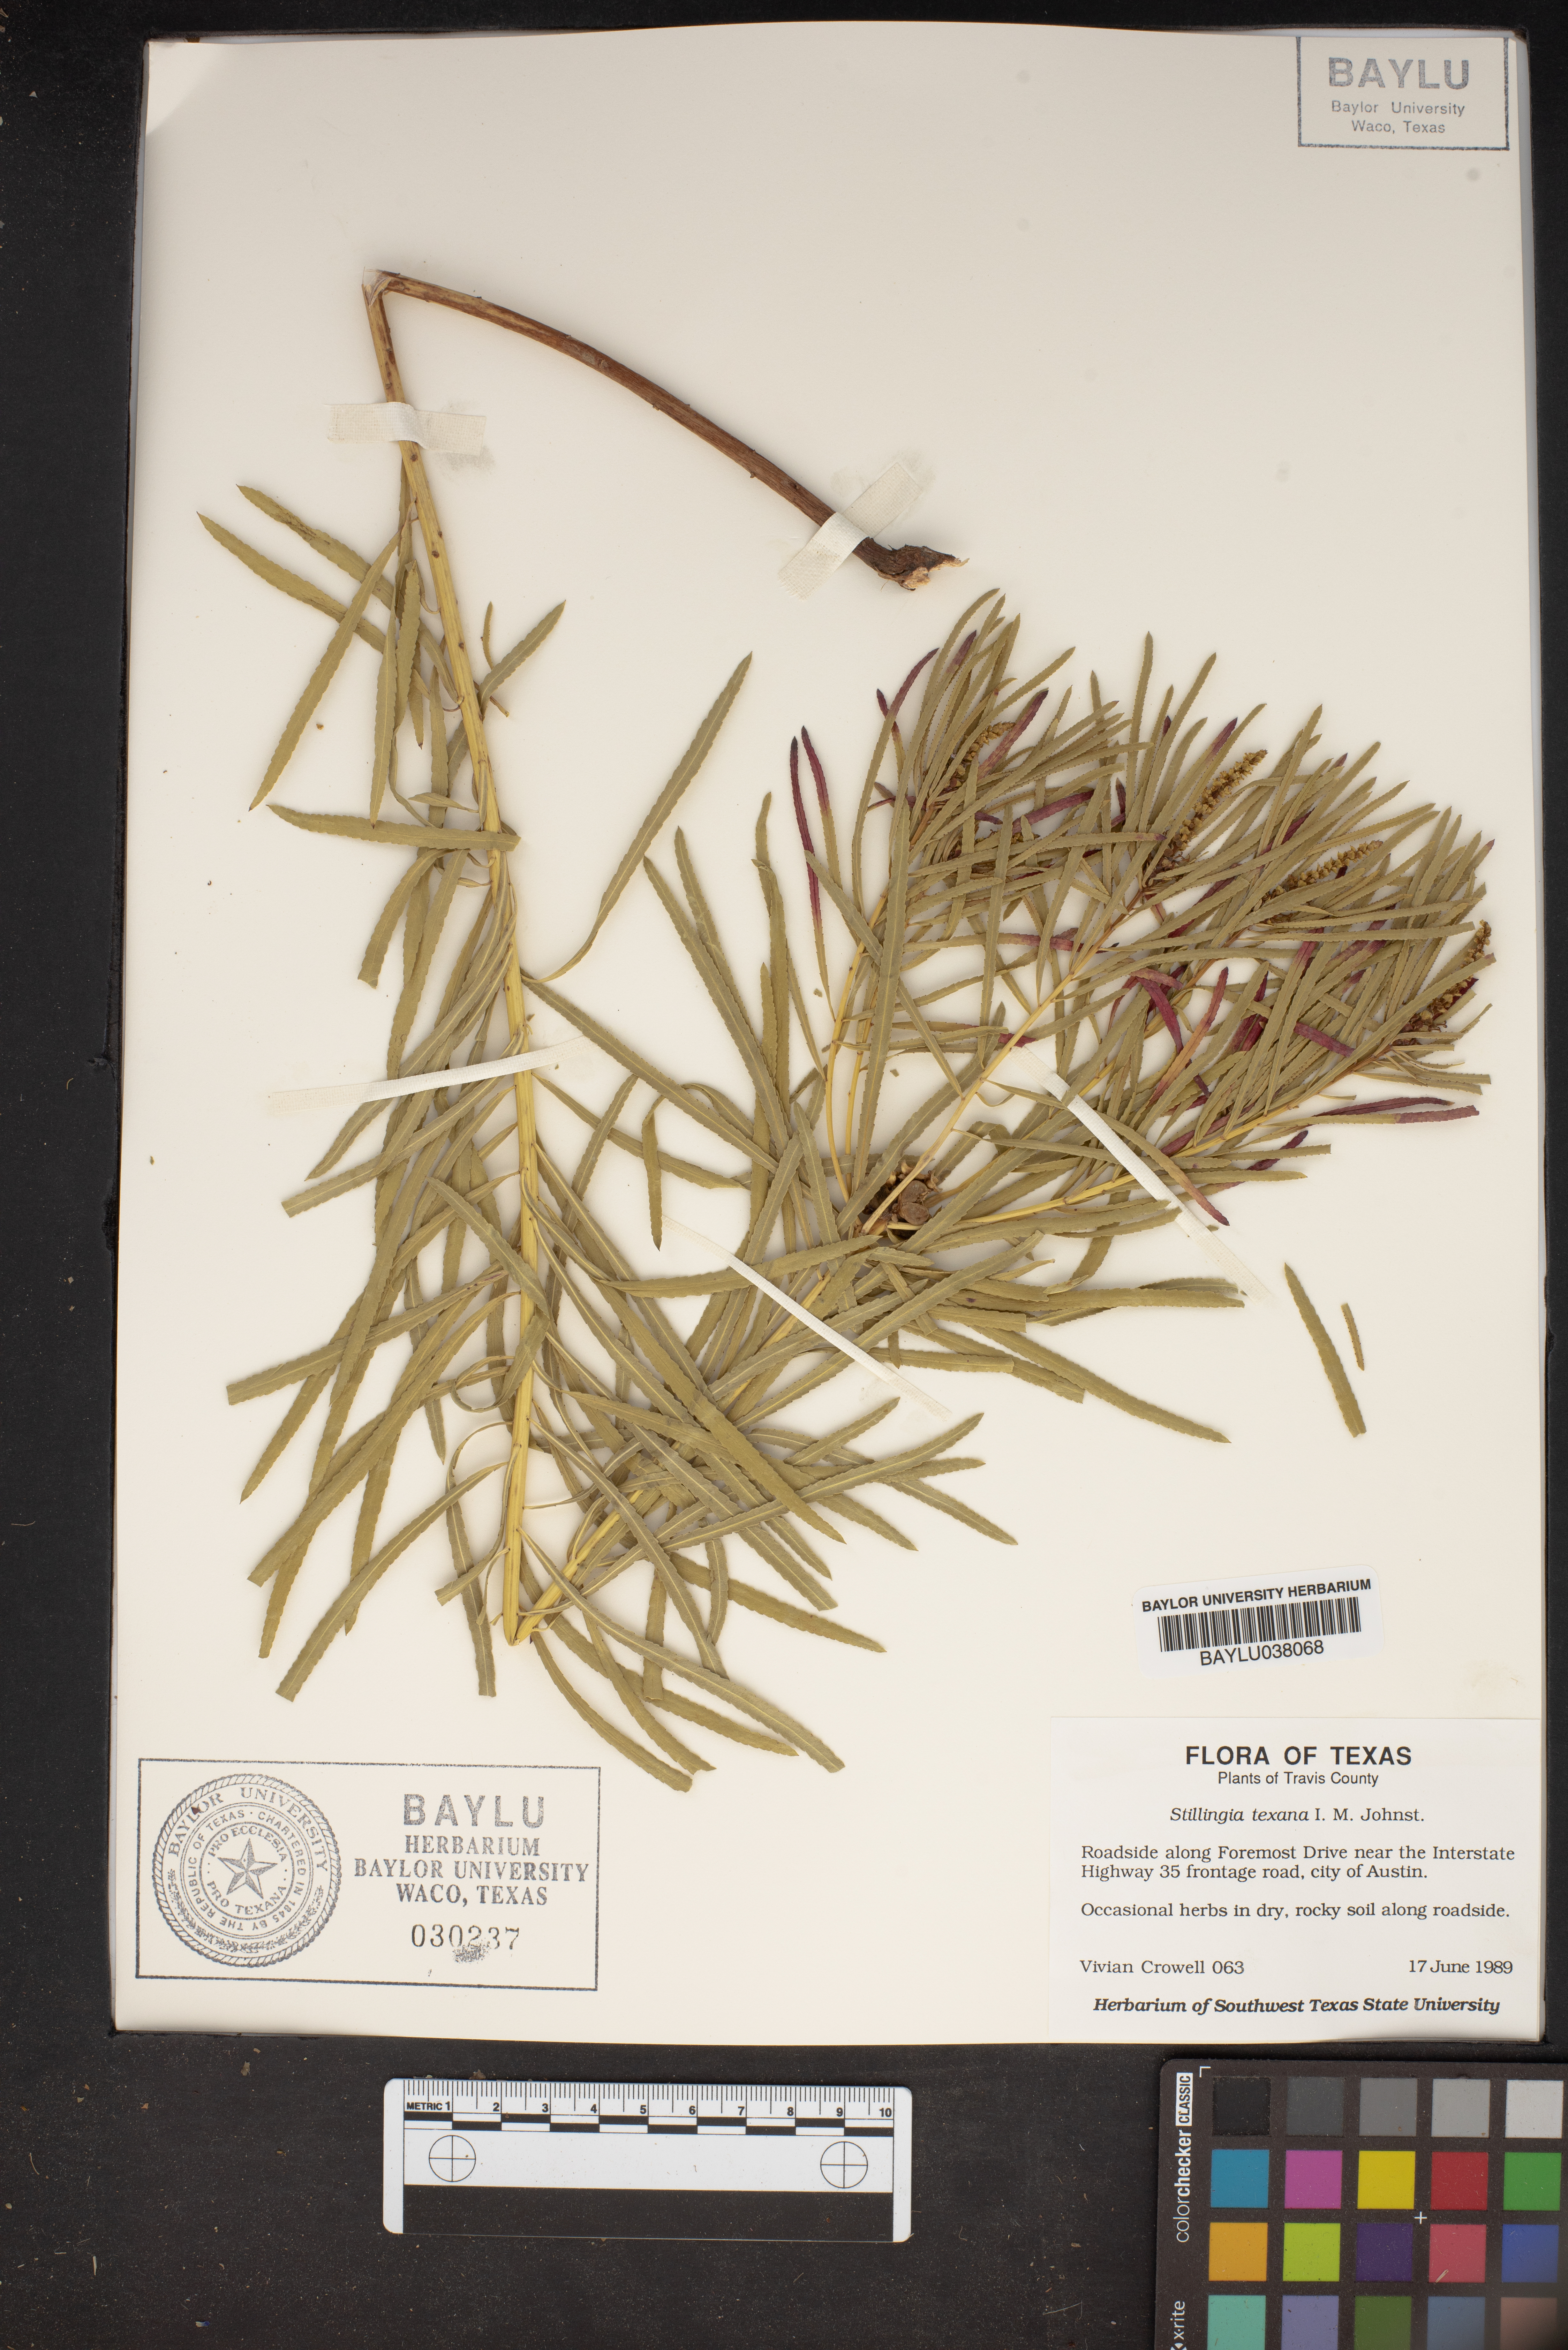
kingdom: Plantae
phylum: Tracheophyta
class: Magnoliopsida
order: Malpighiales
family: Euphorbiaceae
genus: Stillingia
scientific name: Stillingia texana
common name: Texas stillingia
